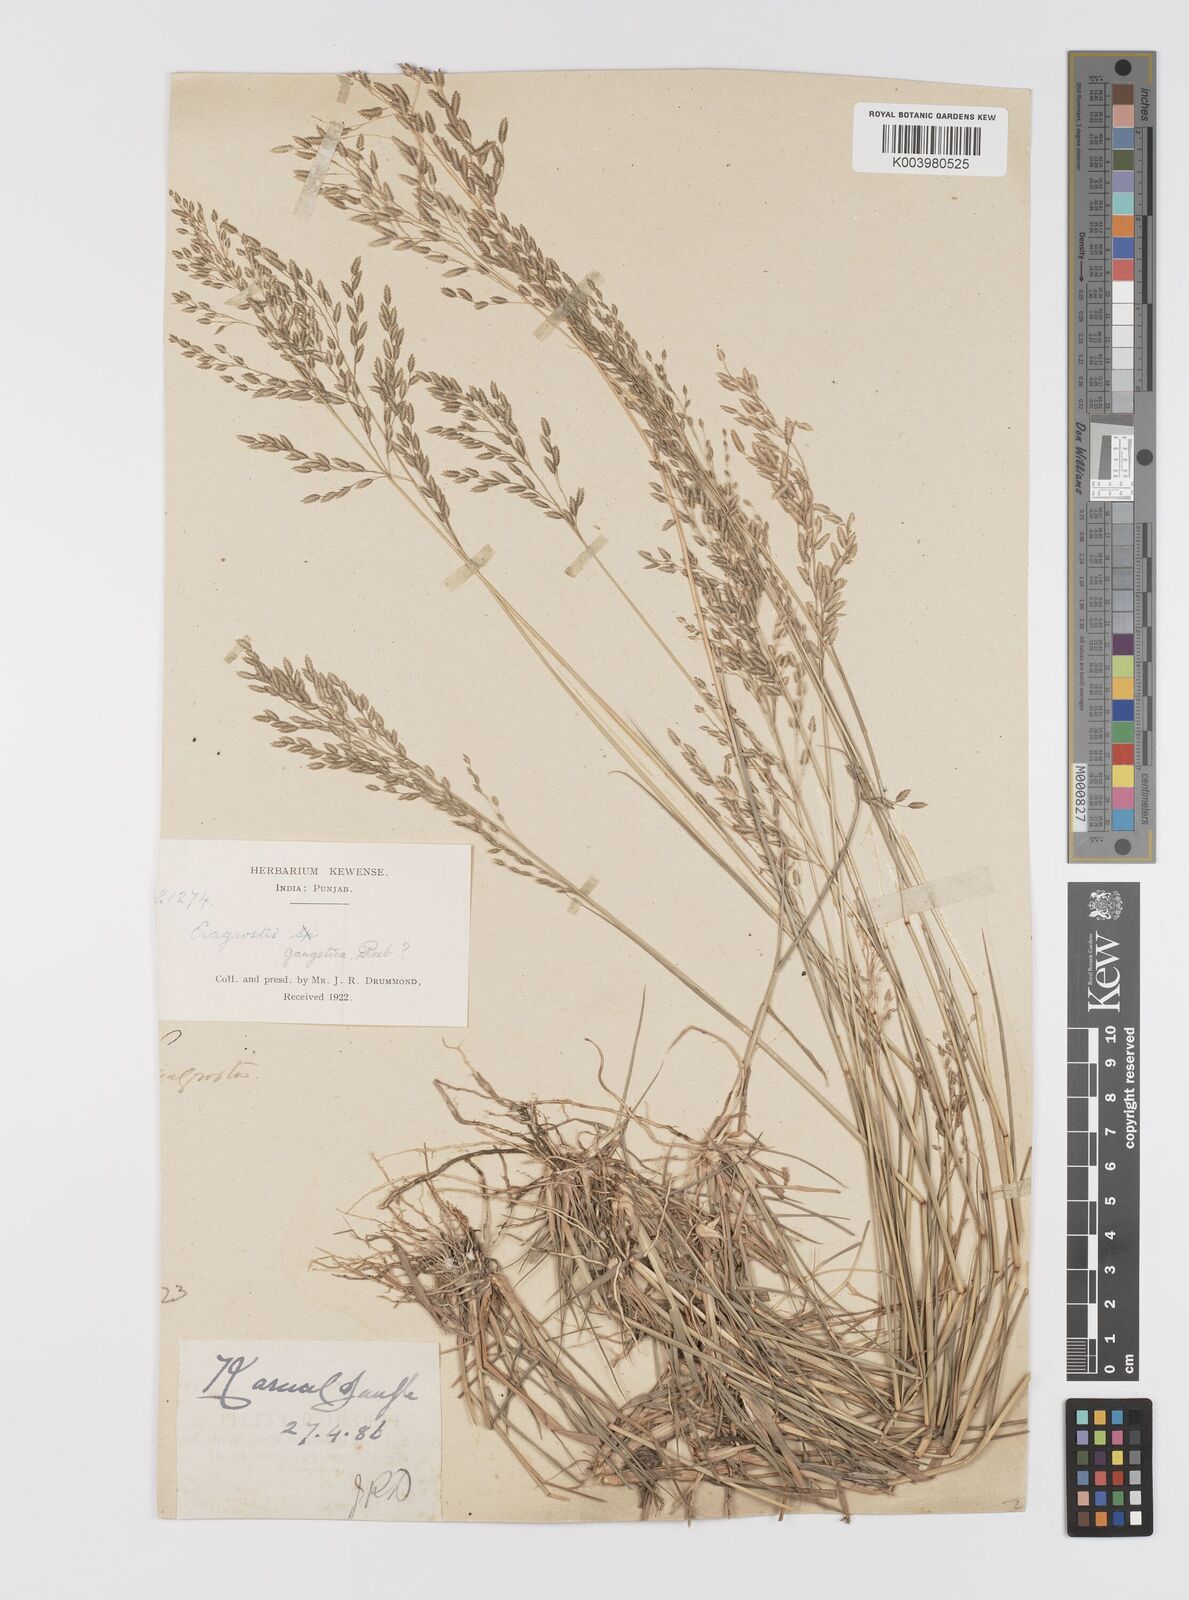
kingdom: Plantae
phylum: Tracheophyta
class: Liliopsida
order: Poales
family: Poaceae
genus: Eragrostis
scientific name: Eragrostis
